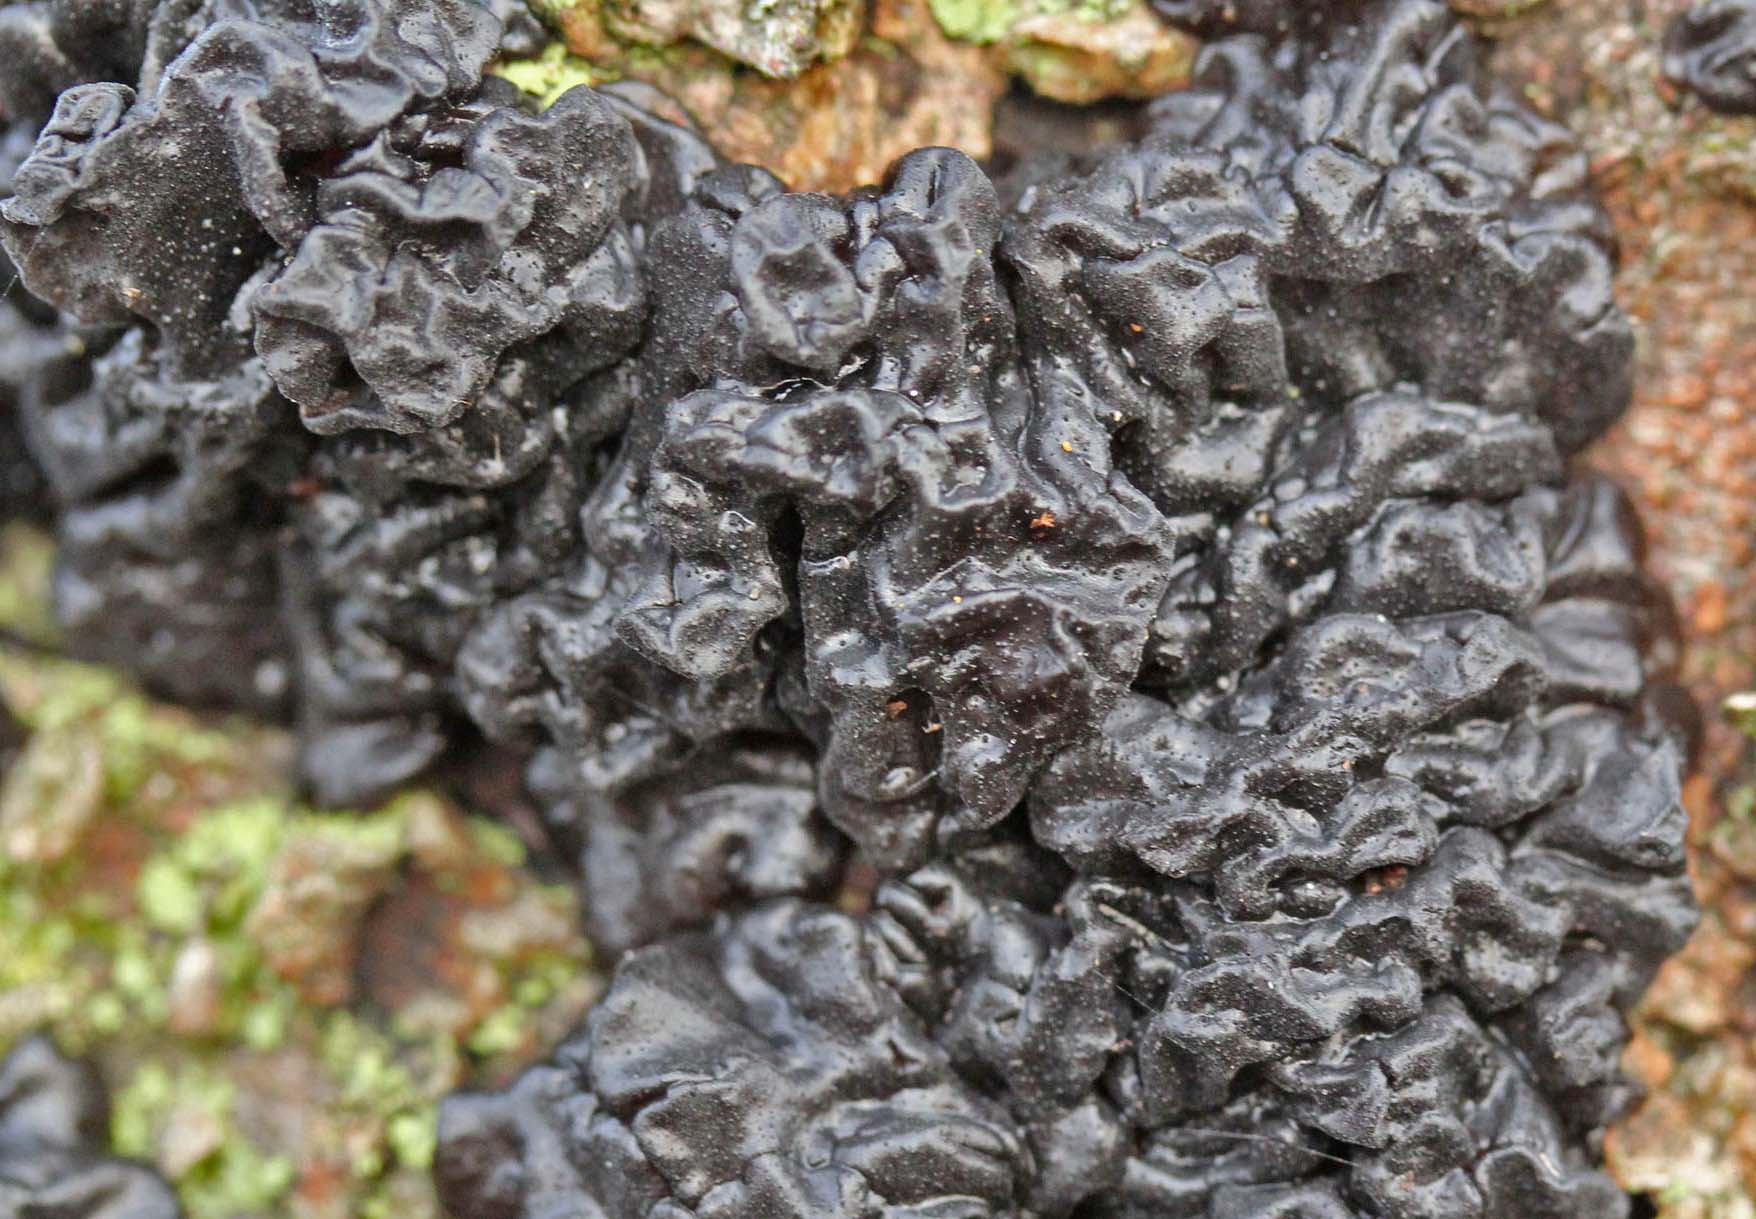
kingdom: Fungi
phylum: Basidiomycota
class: Agaricomycetes
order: Auriculariales
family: Auriculariaceae
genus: Exidia
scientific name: Exidia nigricans
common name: almindelig bævretop
